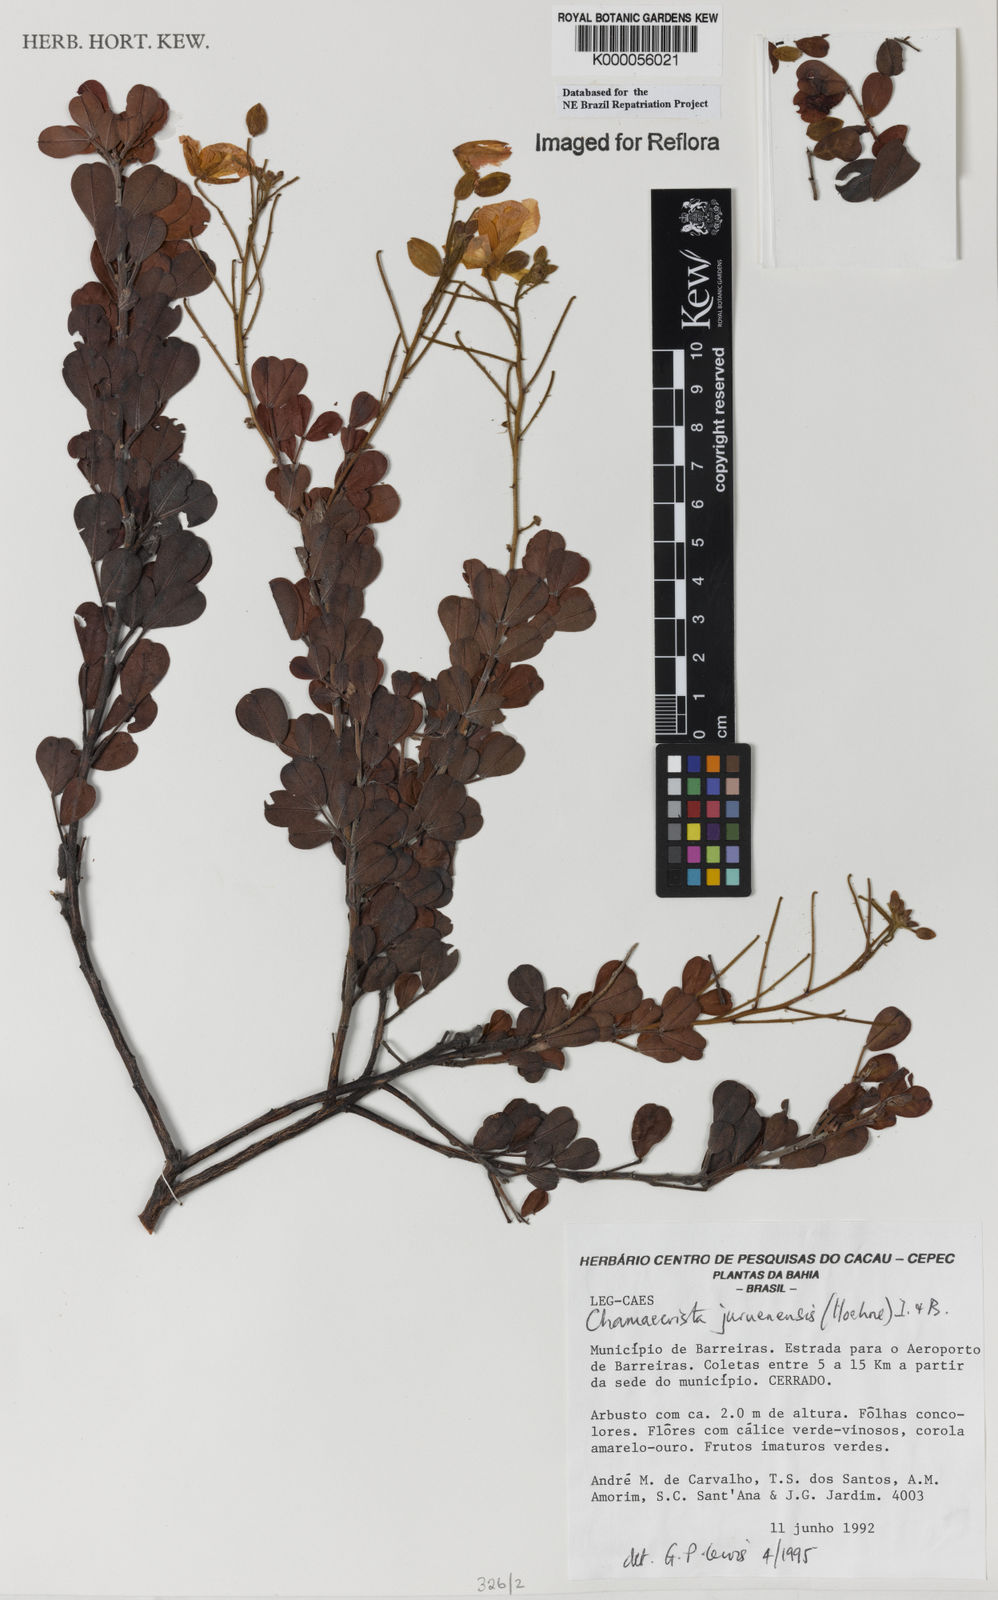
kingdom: Plantae
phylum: Tracheophyta
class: Magnoliopsida
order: Fabales
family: Fabaceae
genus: Chamaecrista
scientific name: Chamaecrista juruenensis
